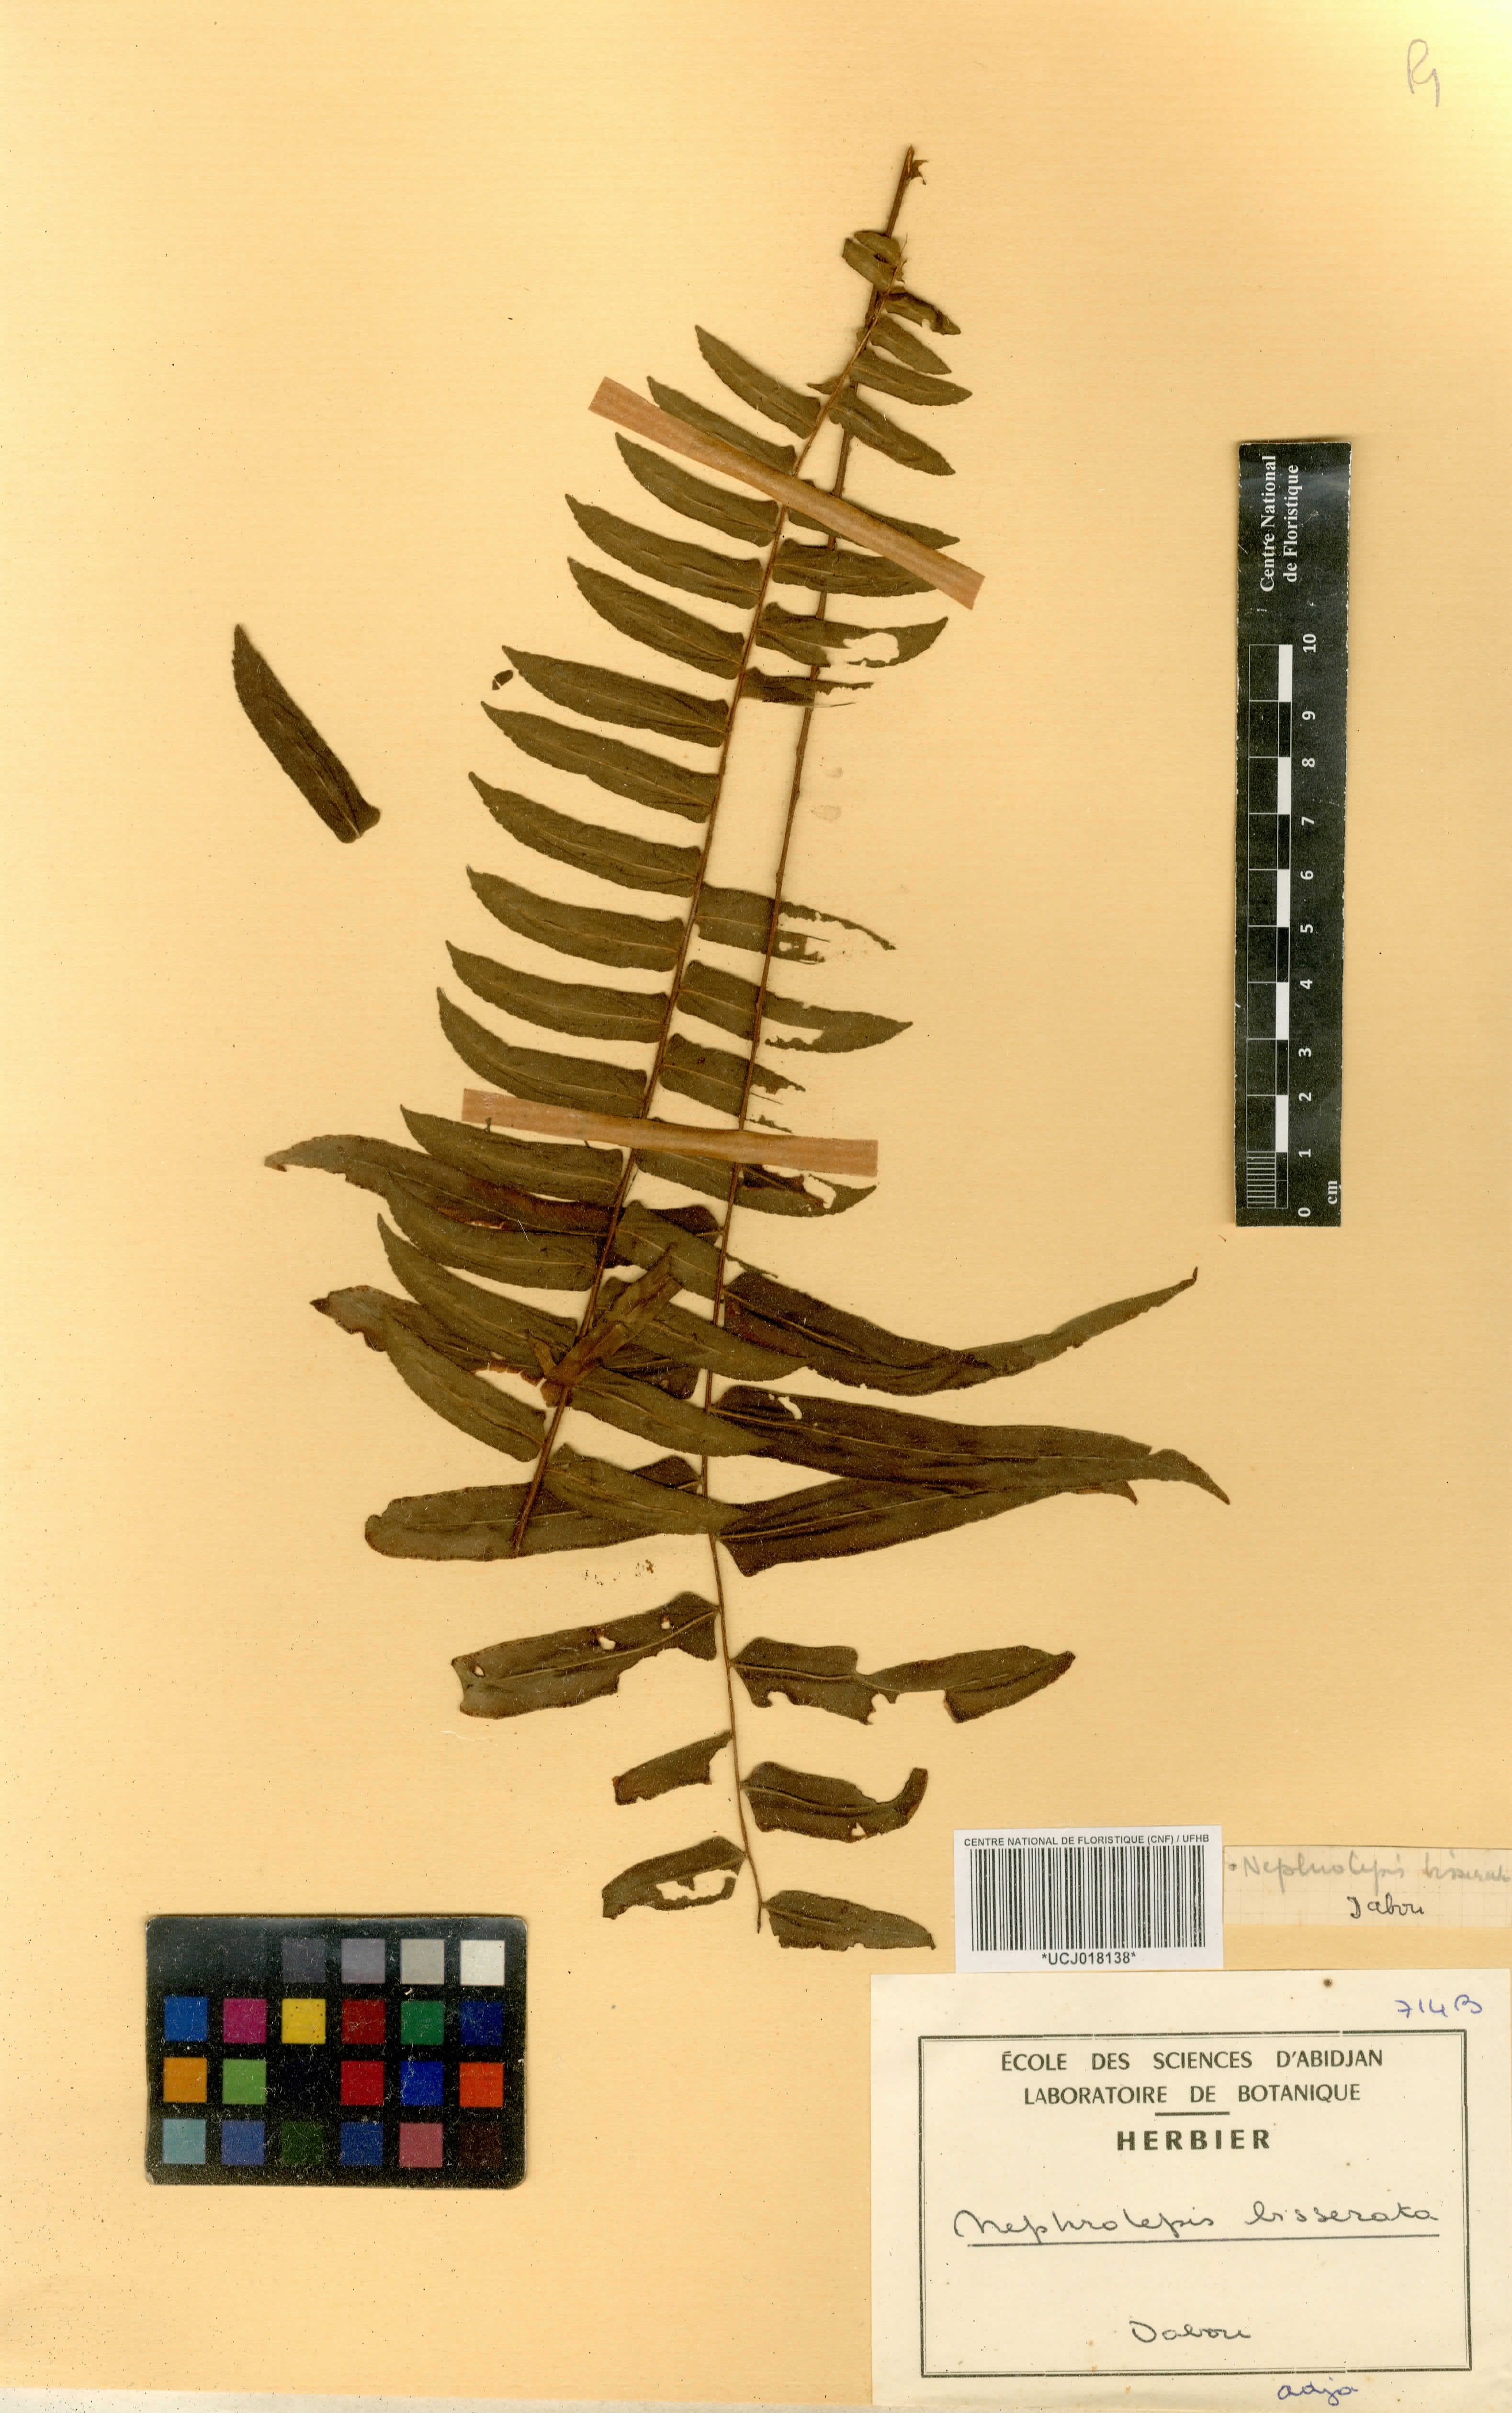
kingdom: Plantae
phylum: Tracheophyta
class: Polypodiopsida
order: Polypodiales
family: Nephrolepidaceae
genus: Nephrolepis
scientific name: Nephrolepis biserrata
